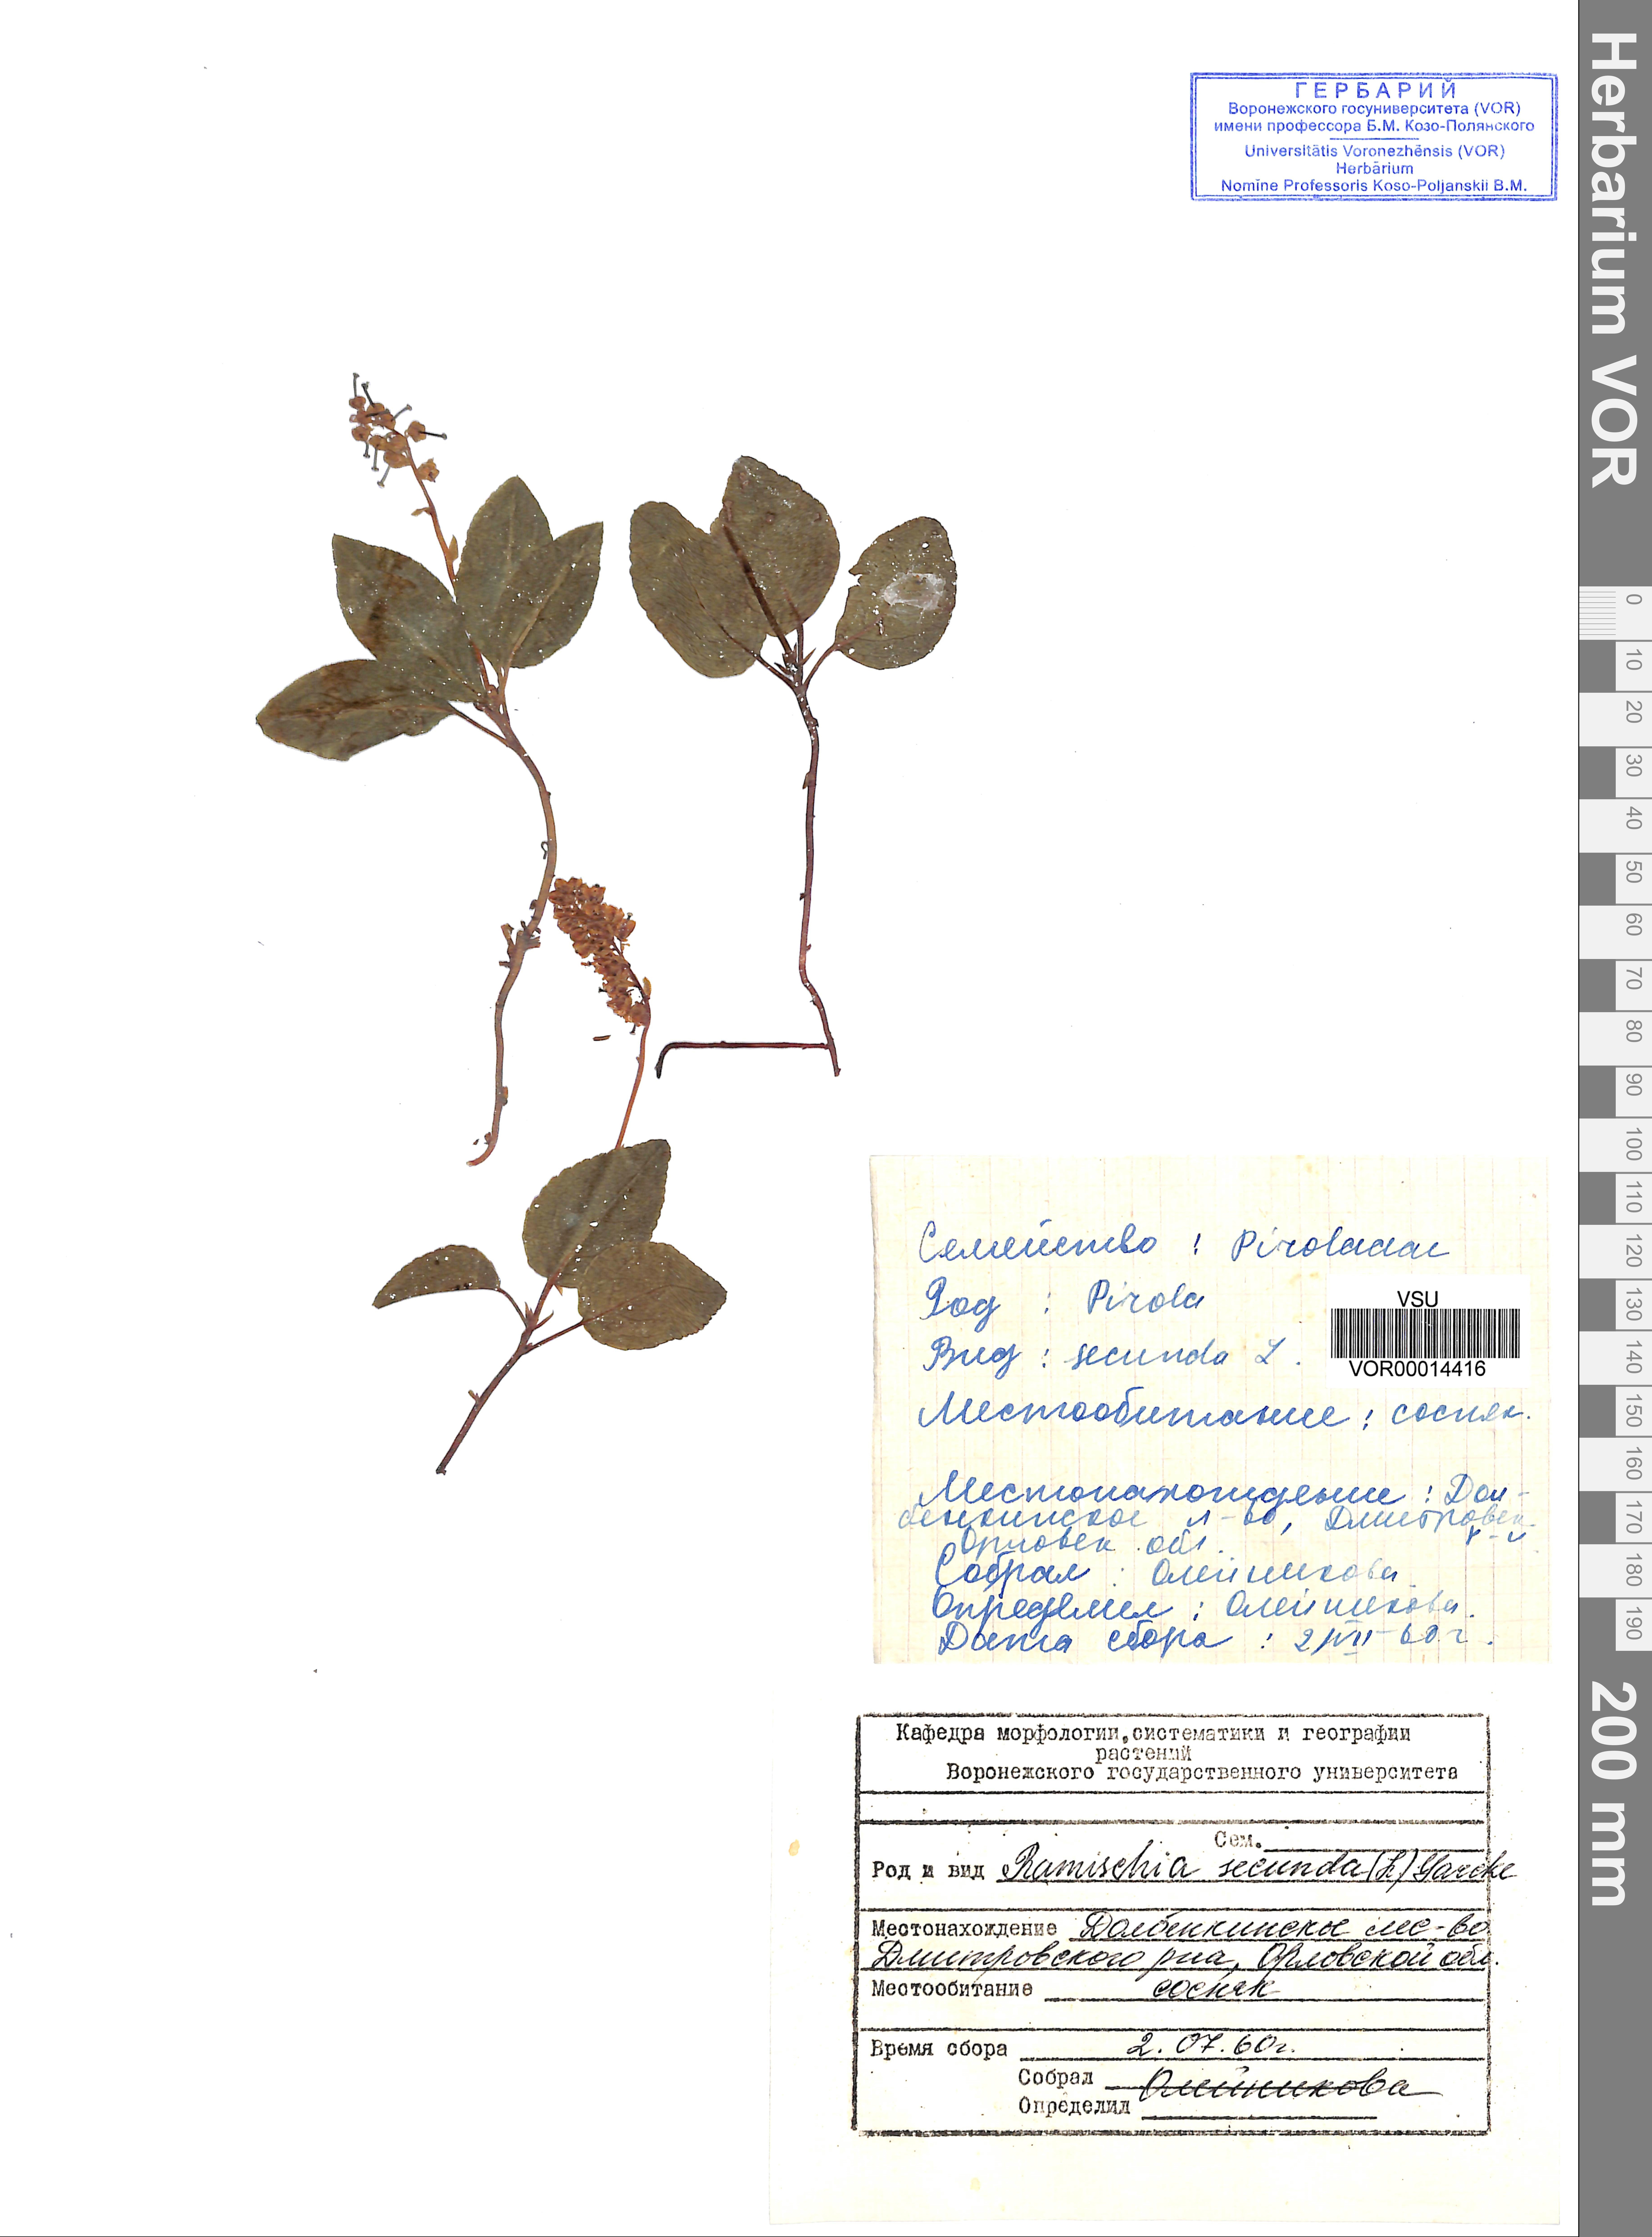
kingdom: Plantae
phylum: Tracheophyta
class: Magnoliopsida
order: Ericales
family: Ericaceae
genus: Orthilia
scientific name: Orthilia secunda
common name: One-sided orthilia
